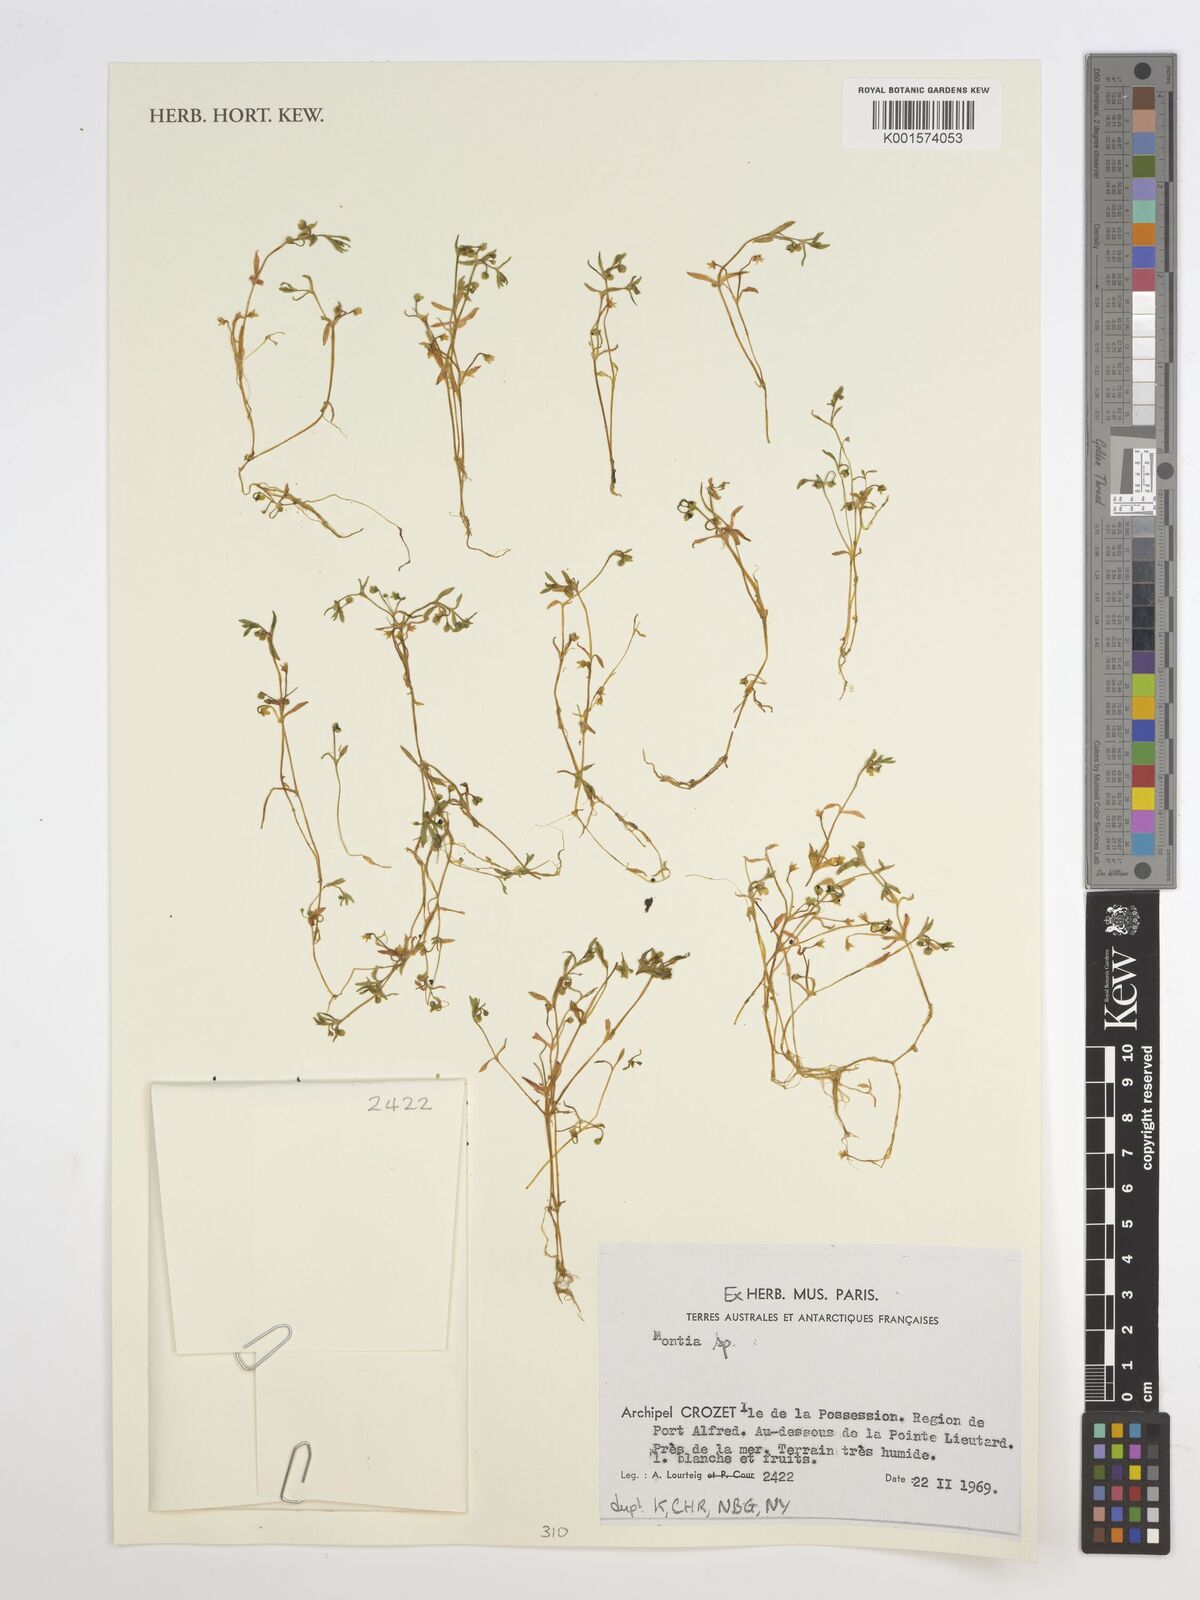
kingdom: Plantae
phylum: Tracheophyta
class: Magnoliopsida
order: Caryophyllales
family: Montiaceae
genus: Montia
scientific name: Montia
